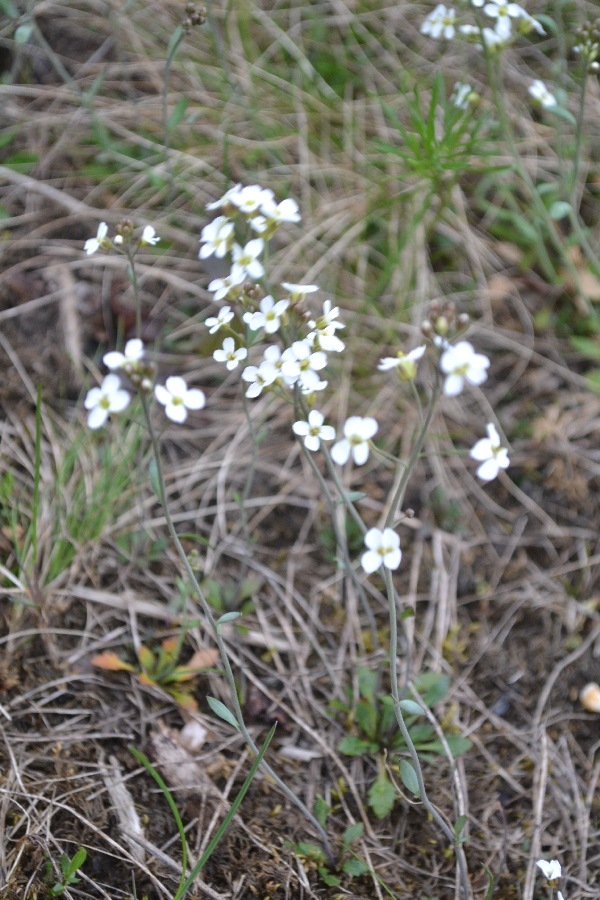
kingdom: Plantae
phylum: Tracheophyta
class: Magnoliopsida
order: Brassicales
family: Brassicaceae
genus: Arabidopsis
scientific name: Arabidopsis lyrata
